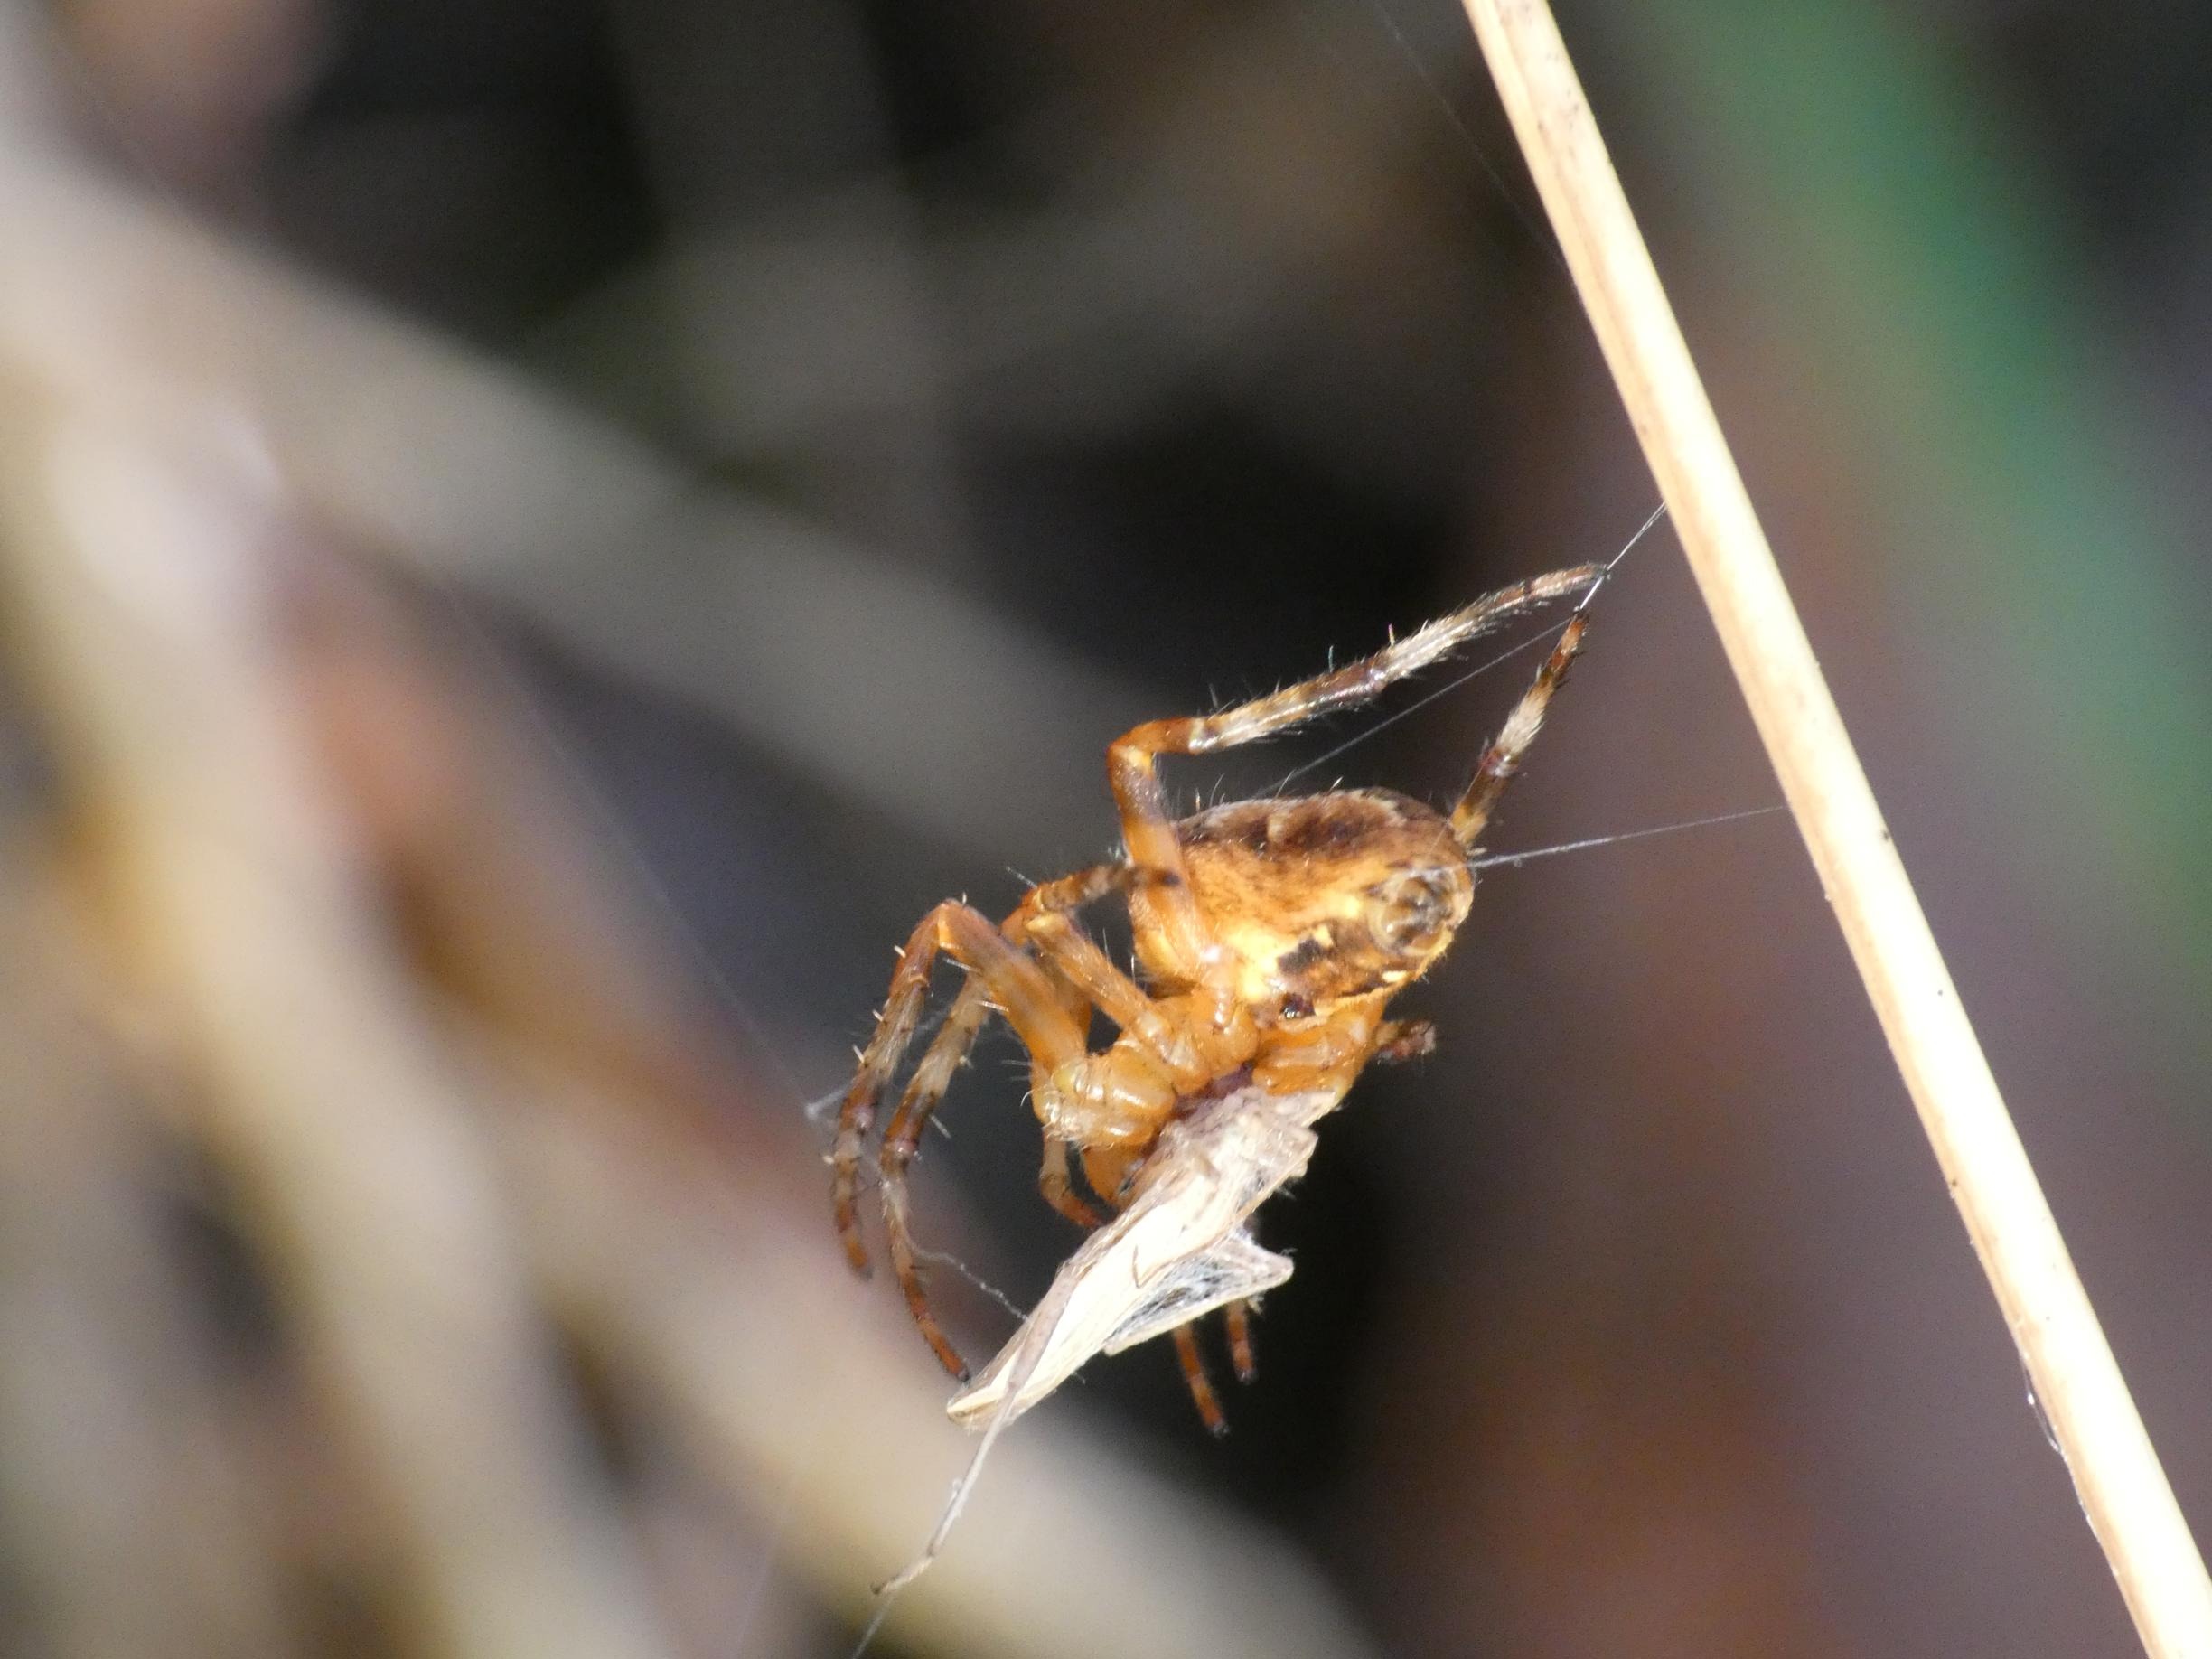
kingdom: Animalia
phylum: Arthropoda
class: Arachnida
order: Araneae
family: Araneidae
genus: Araneus
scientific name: Araneus diadematus
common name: Korsedderkop
